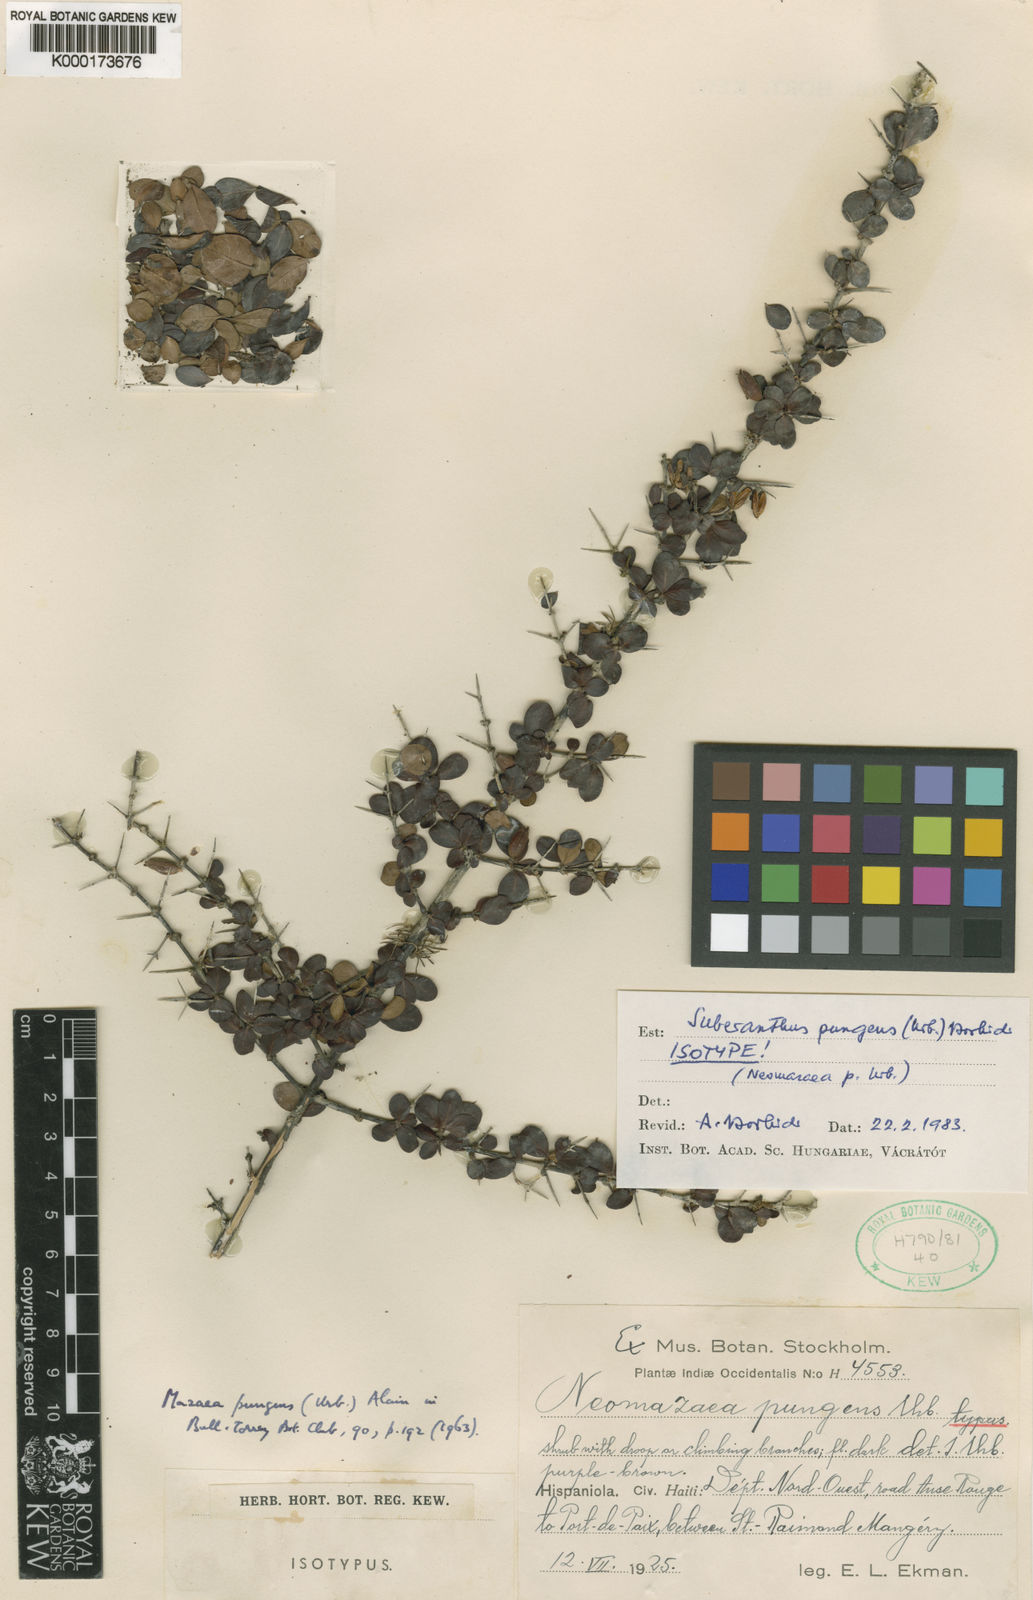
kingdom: Plantae
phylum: Tracheophyta
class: Magnoliopsida
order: Gentianales
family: Rubiaceae
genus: Suberanthus
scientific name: Suberanthus pungens
